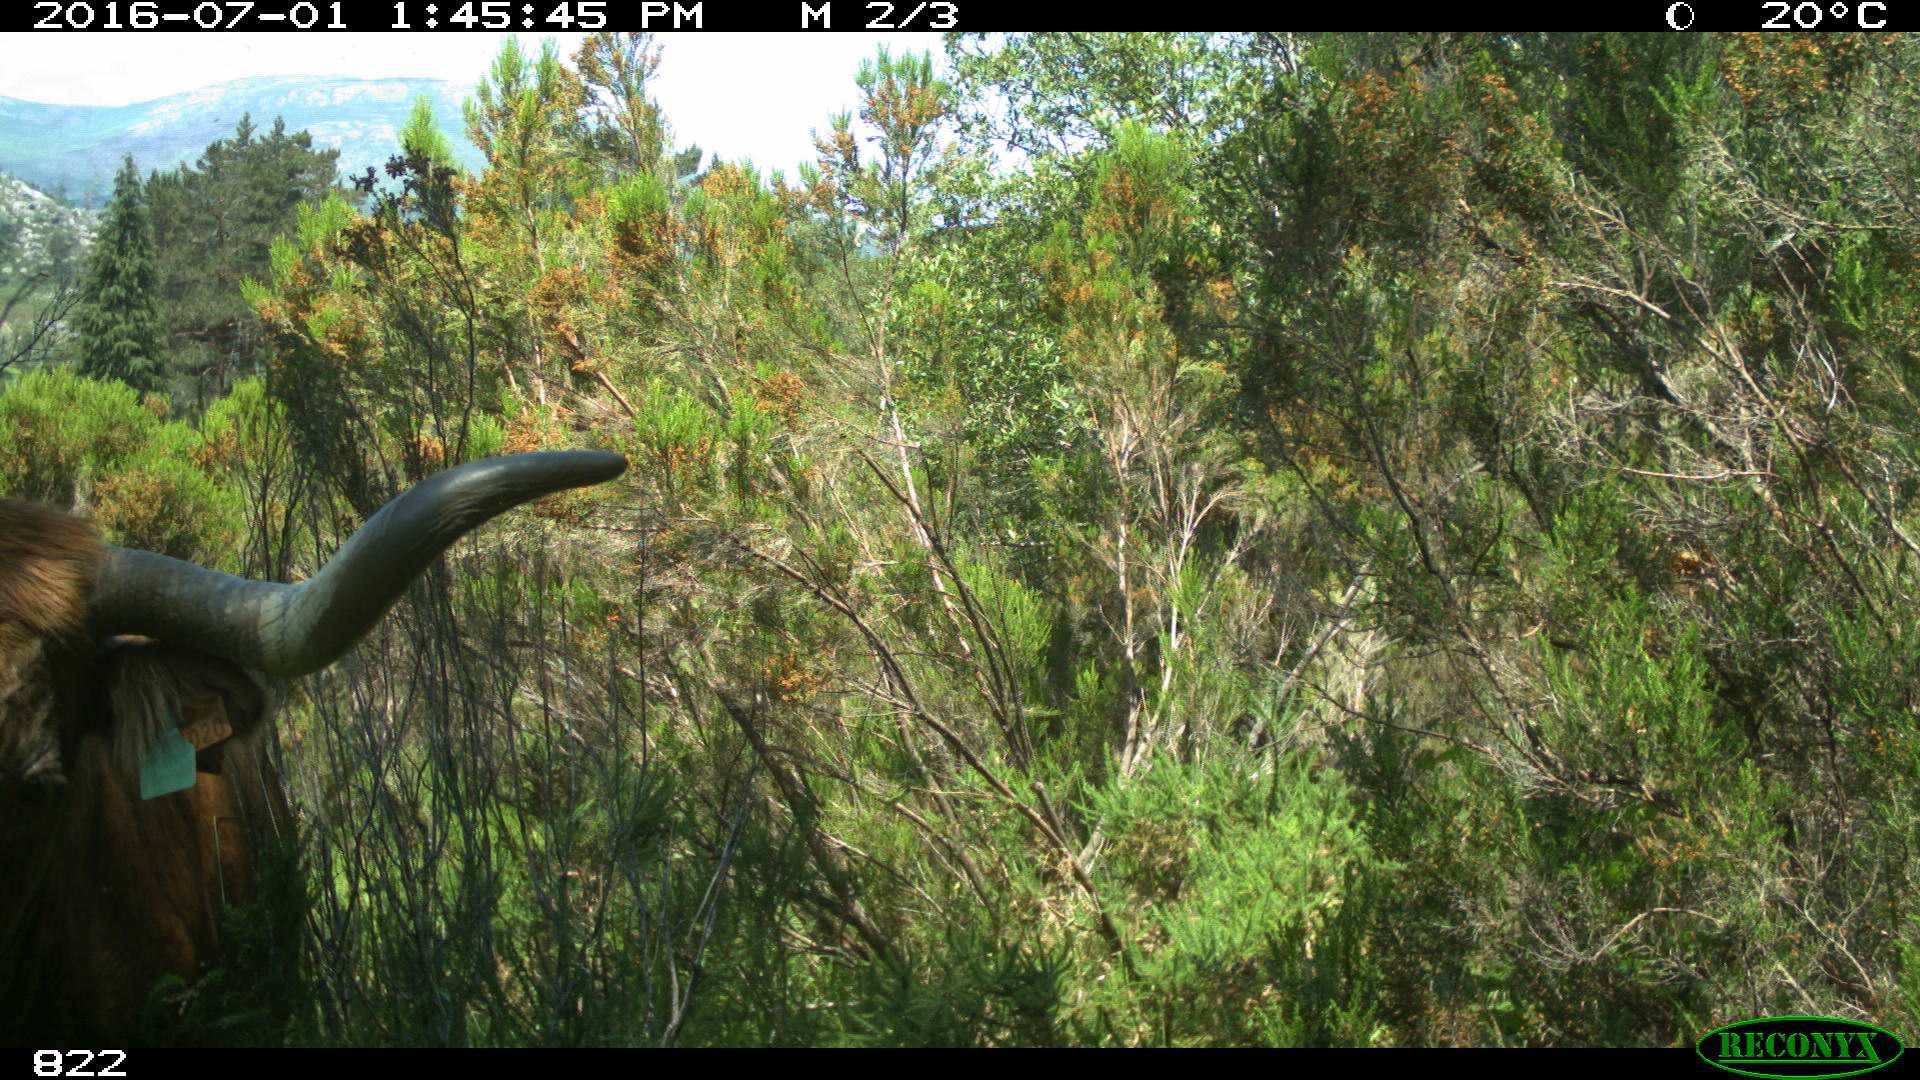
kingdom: Animalia
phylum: Chordata
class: Mammalia
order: Artiodactyla
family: Bovidae
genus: Bos
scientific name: Bos taurus
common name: Domesticated cattle
